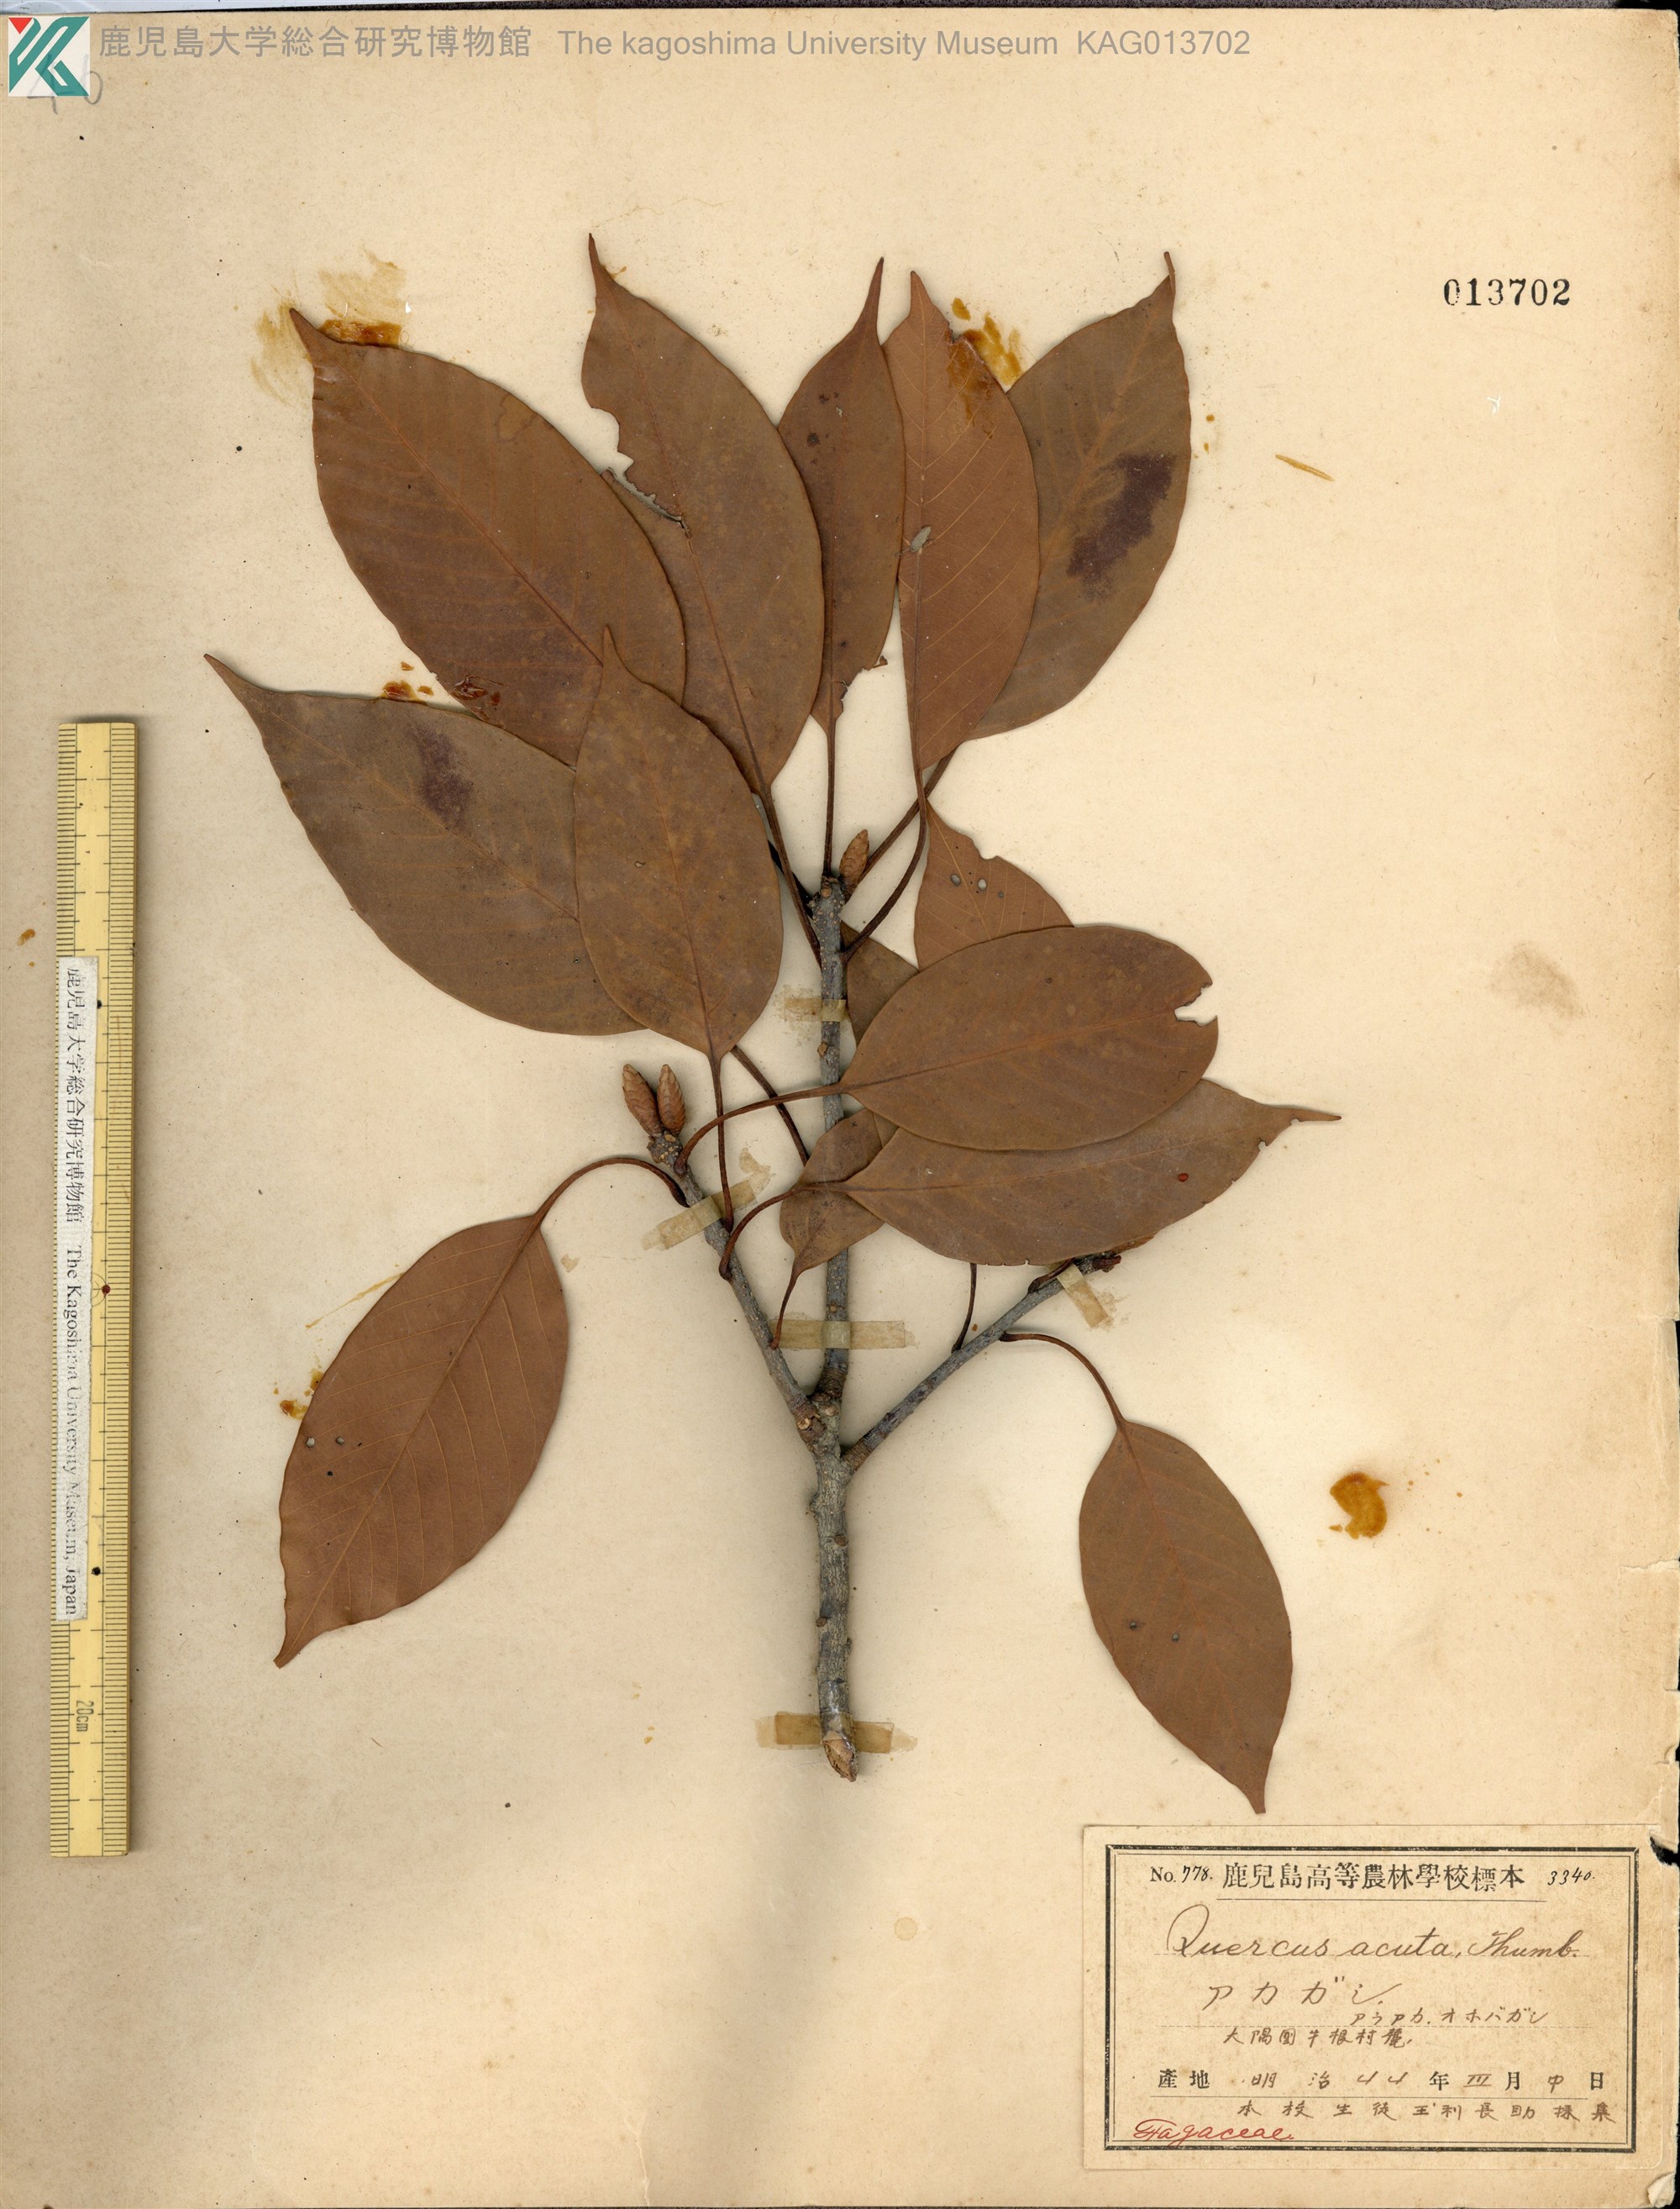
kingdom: Plantae
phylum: Tracheophyta
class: Magnoliopsida
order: Fagales
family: Fagaceae
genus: Quercus
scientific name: Quercus acuta
